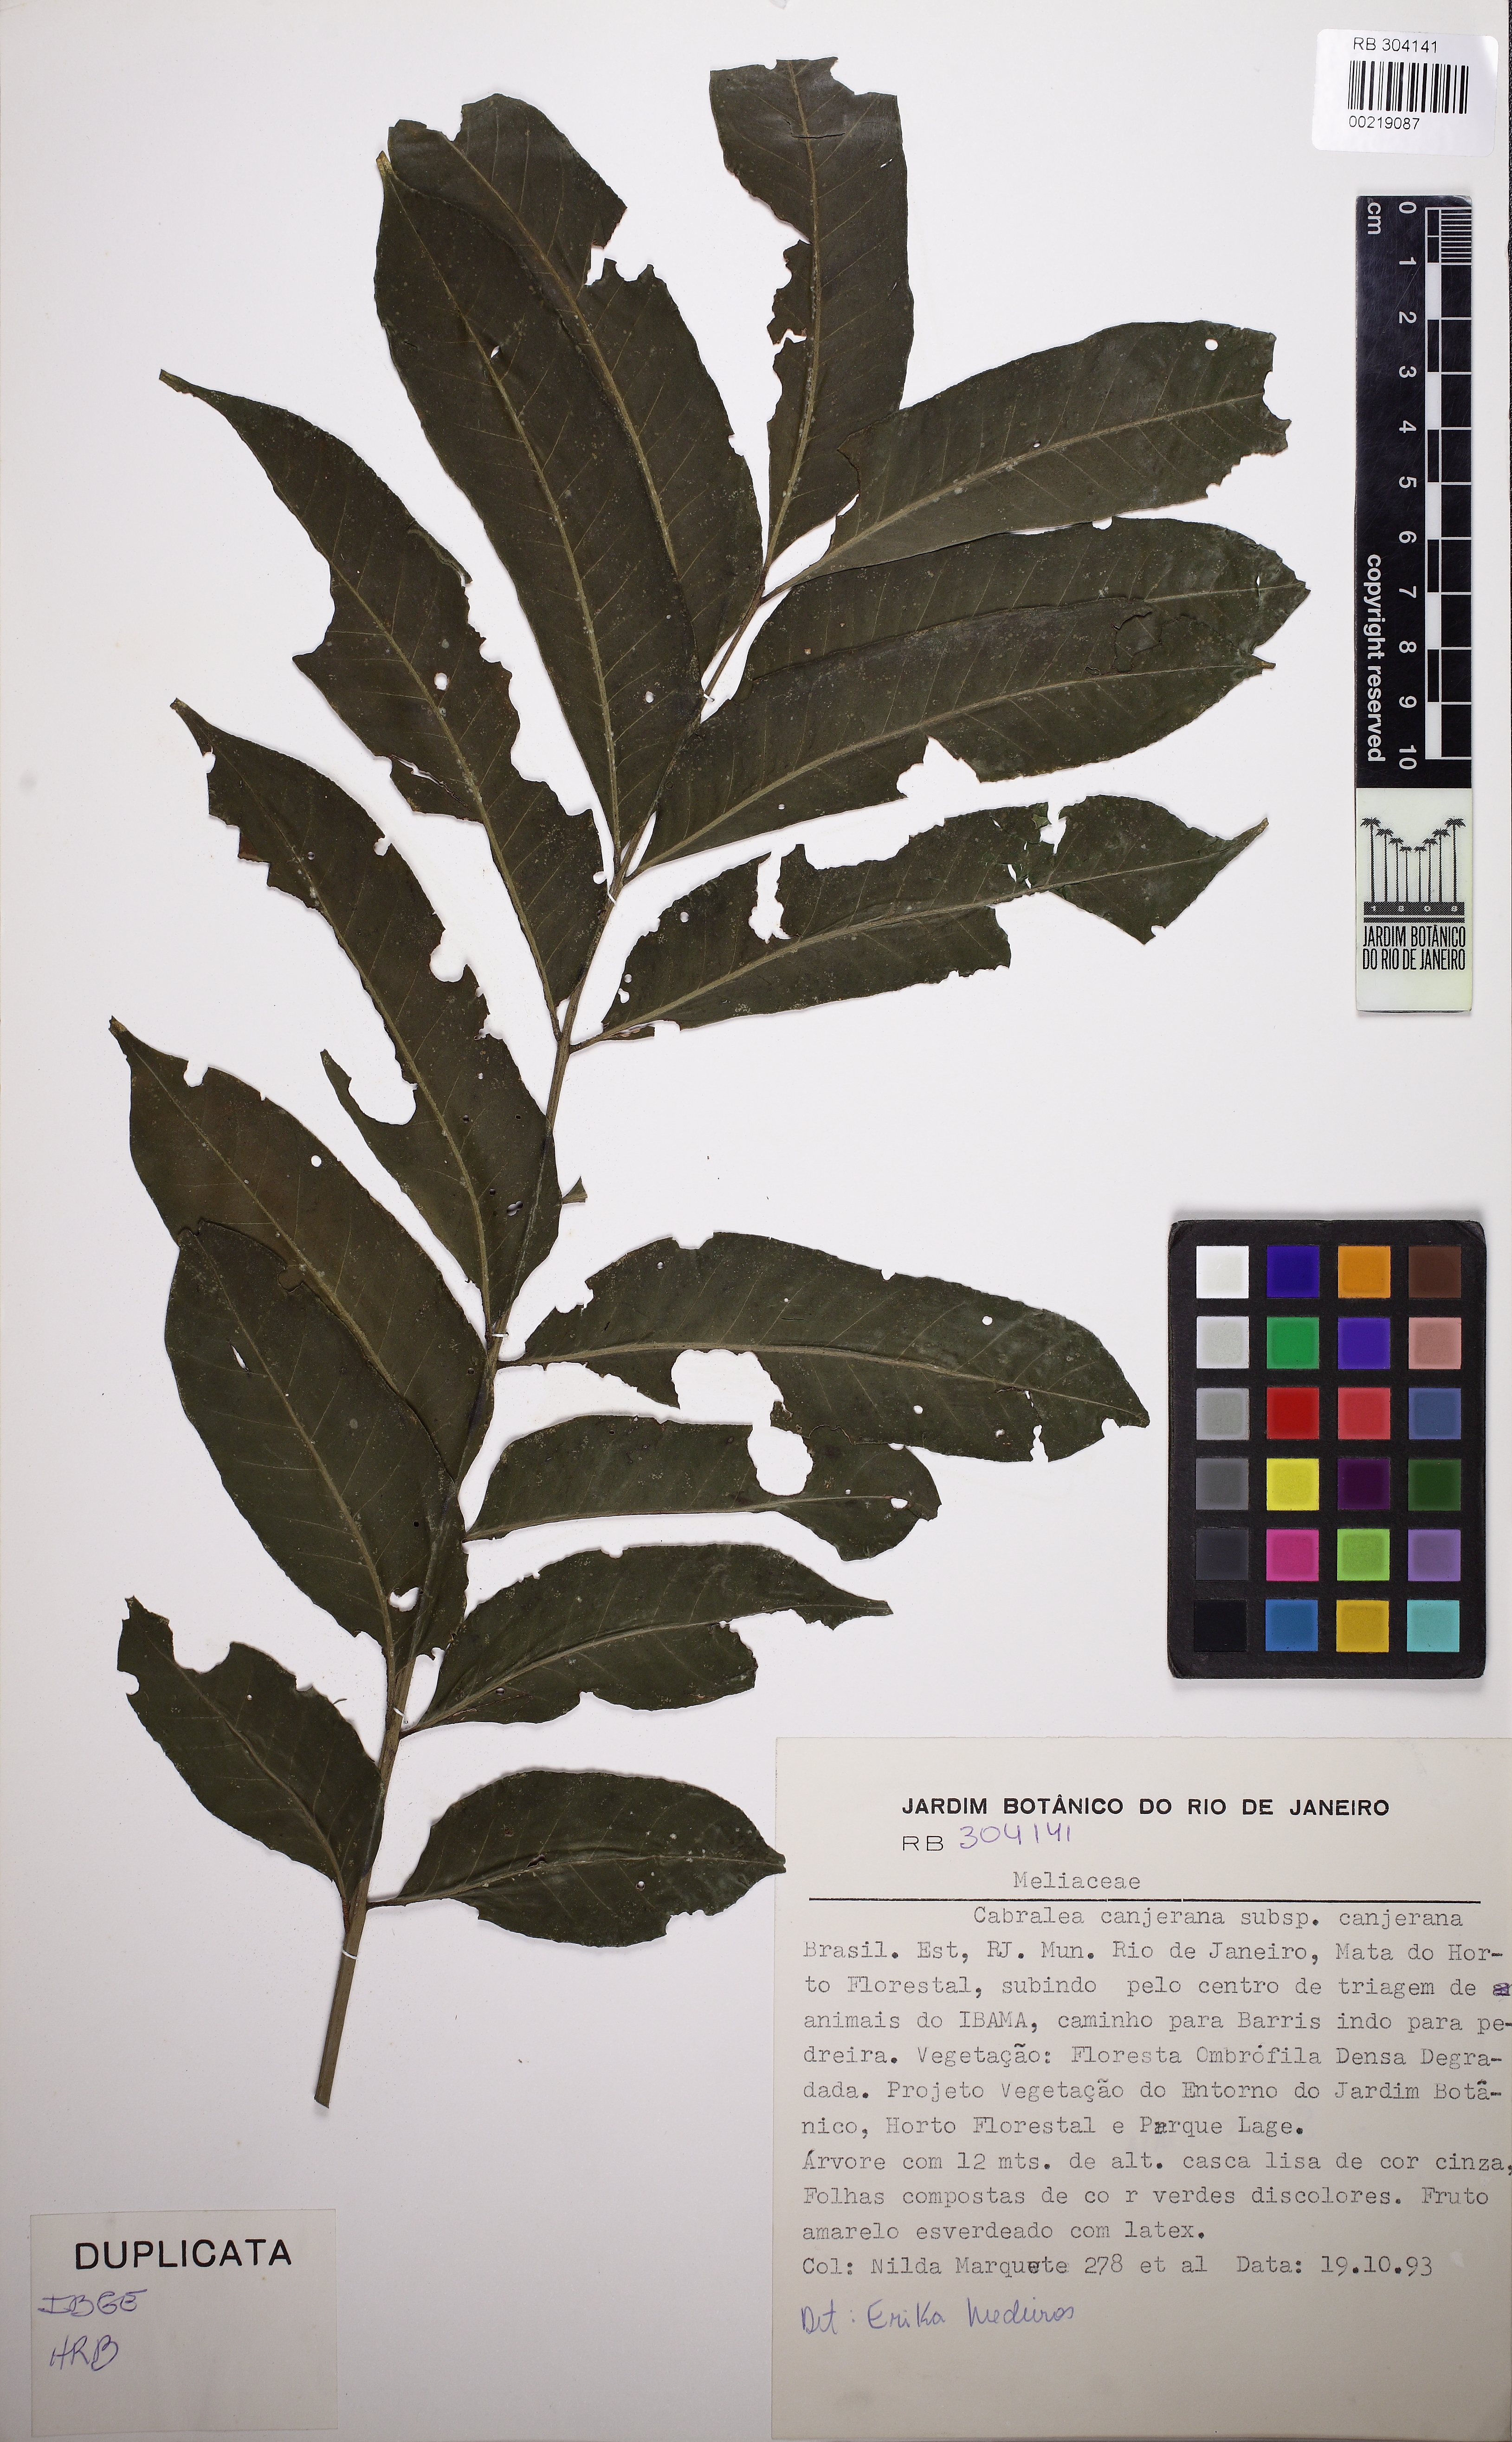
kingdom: Plantae
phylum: Tracheophyta
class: Magnoliopsida
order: Sapindales
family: Meliaceae
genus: Cabralea
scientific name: Cabralea canjerana
